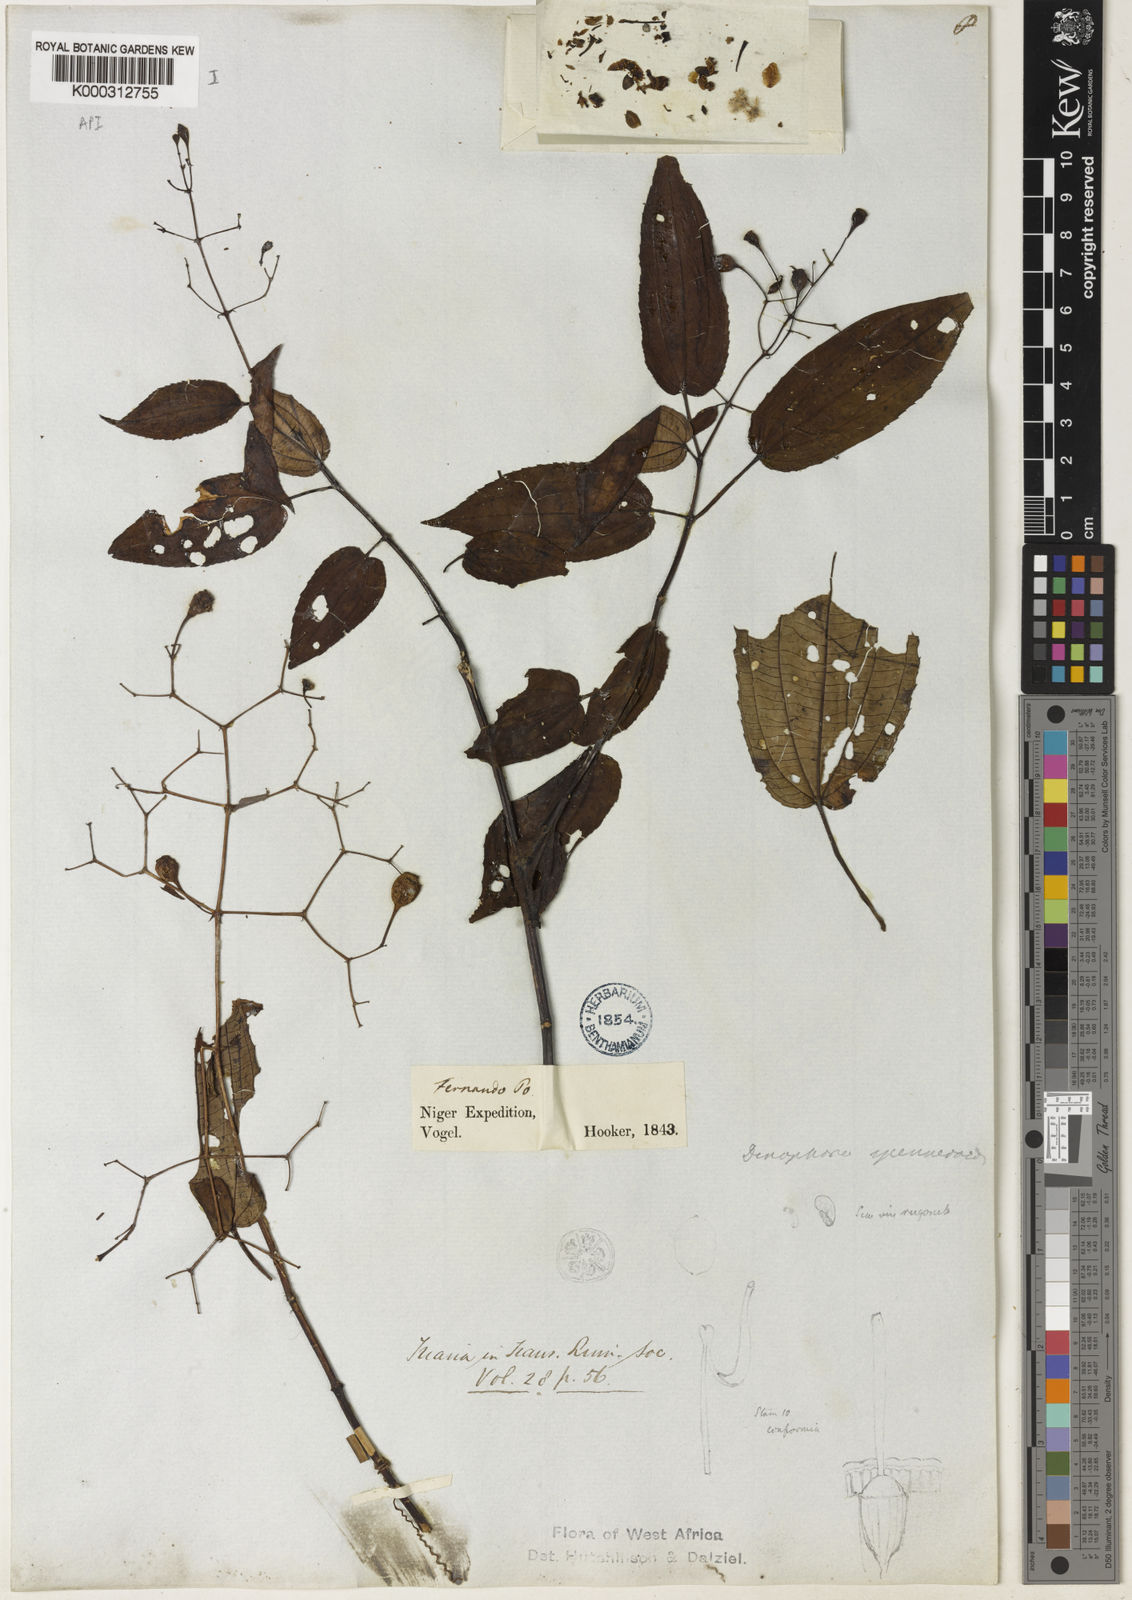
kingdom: Plantae
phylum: Tracheophyta
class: Magnoliopsida
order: Myrtales
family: Melastomataceae
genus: Dinophora
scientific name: Dinophora spenneroides
